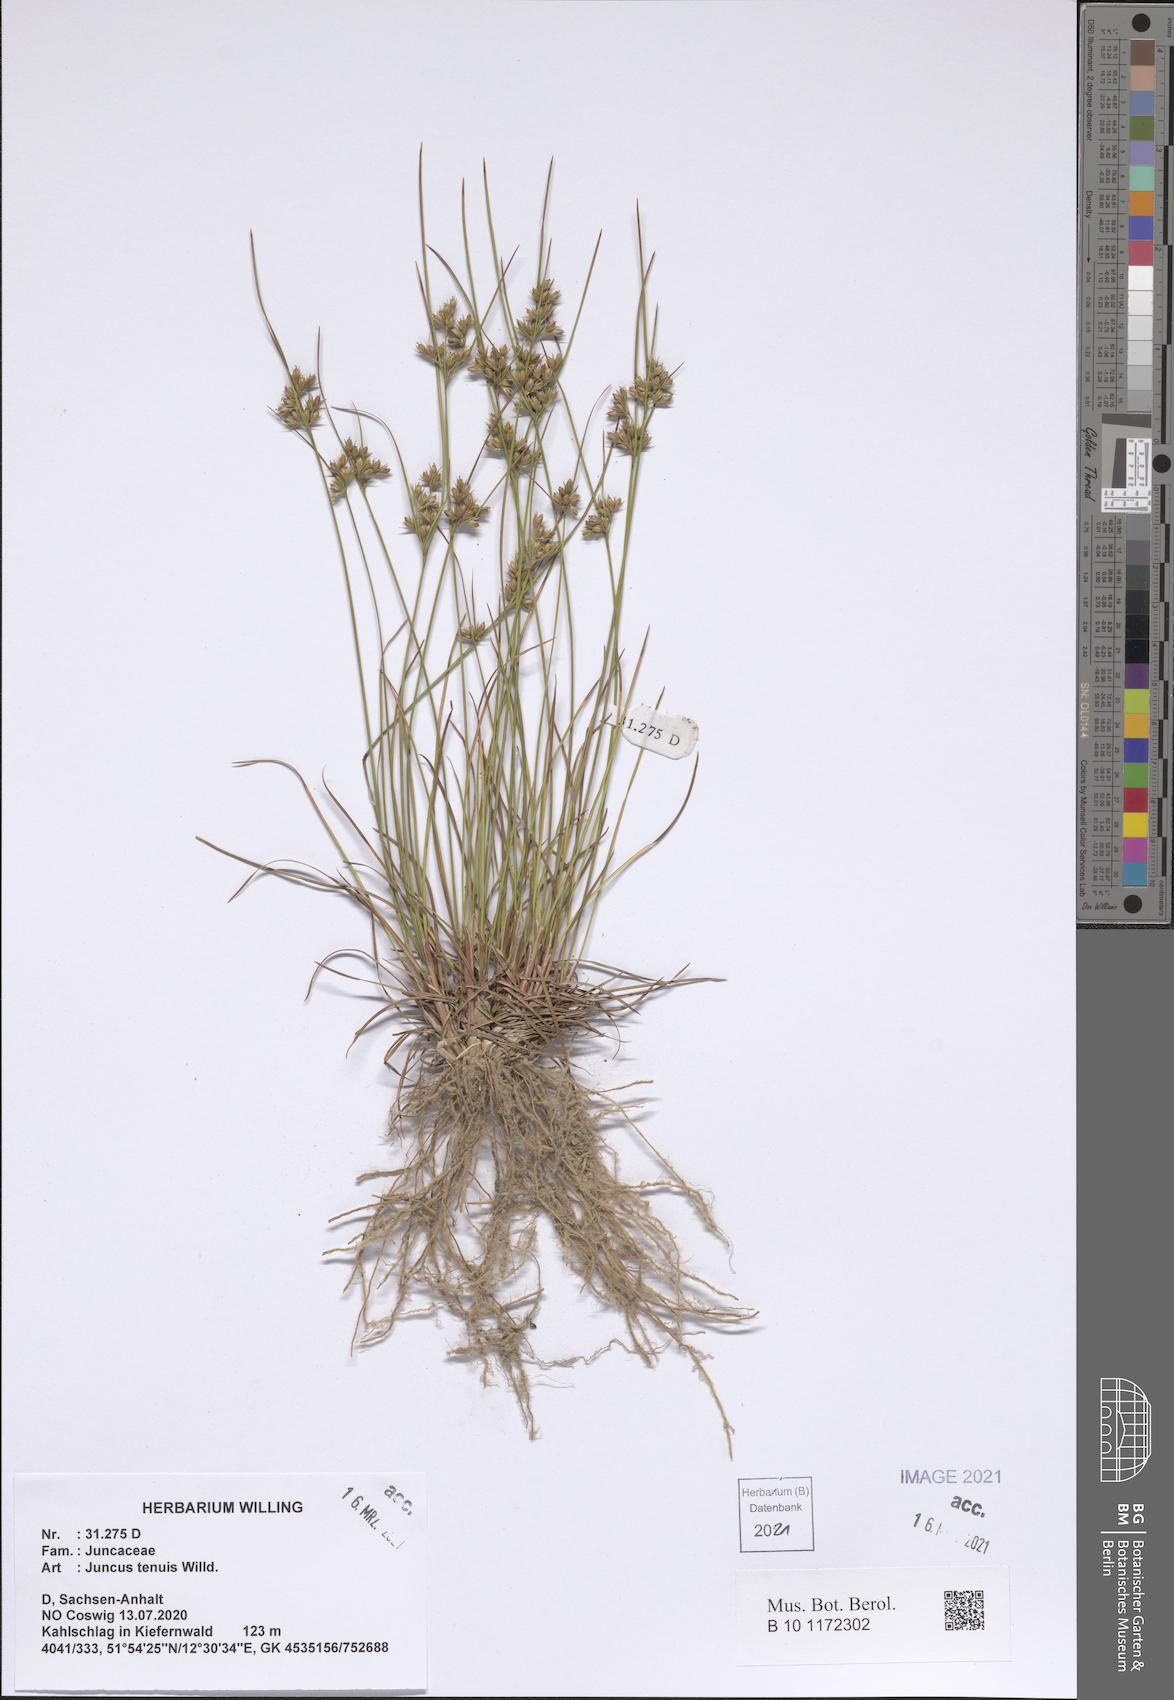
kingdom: Plantae
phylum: Tracheophyta
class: Liliopsida
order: Poales
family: Juncaceae
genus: Juncus
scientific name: Juncus tenuis
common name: Slender rush
